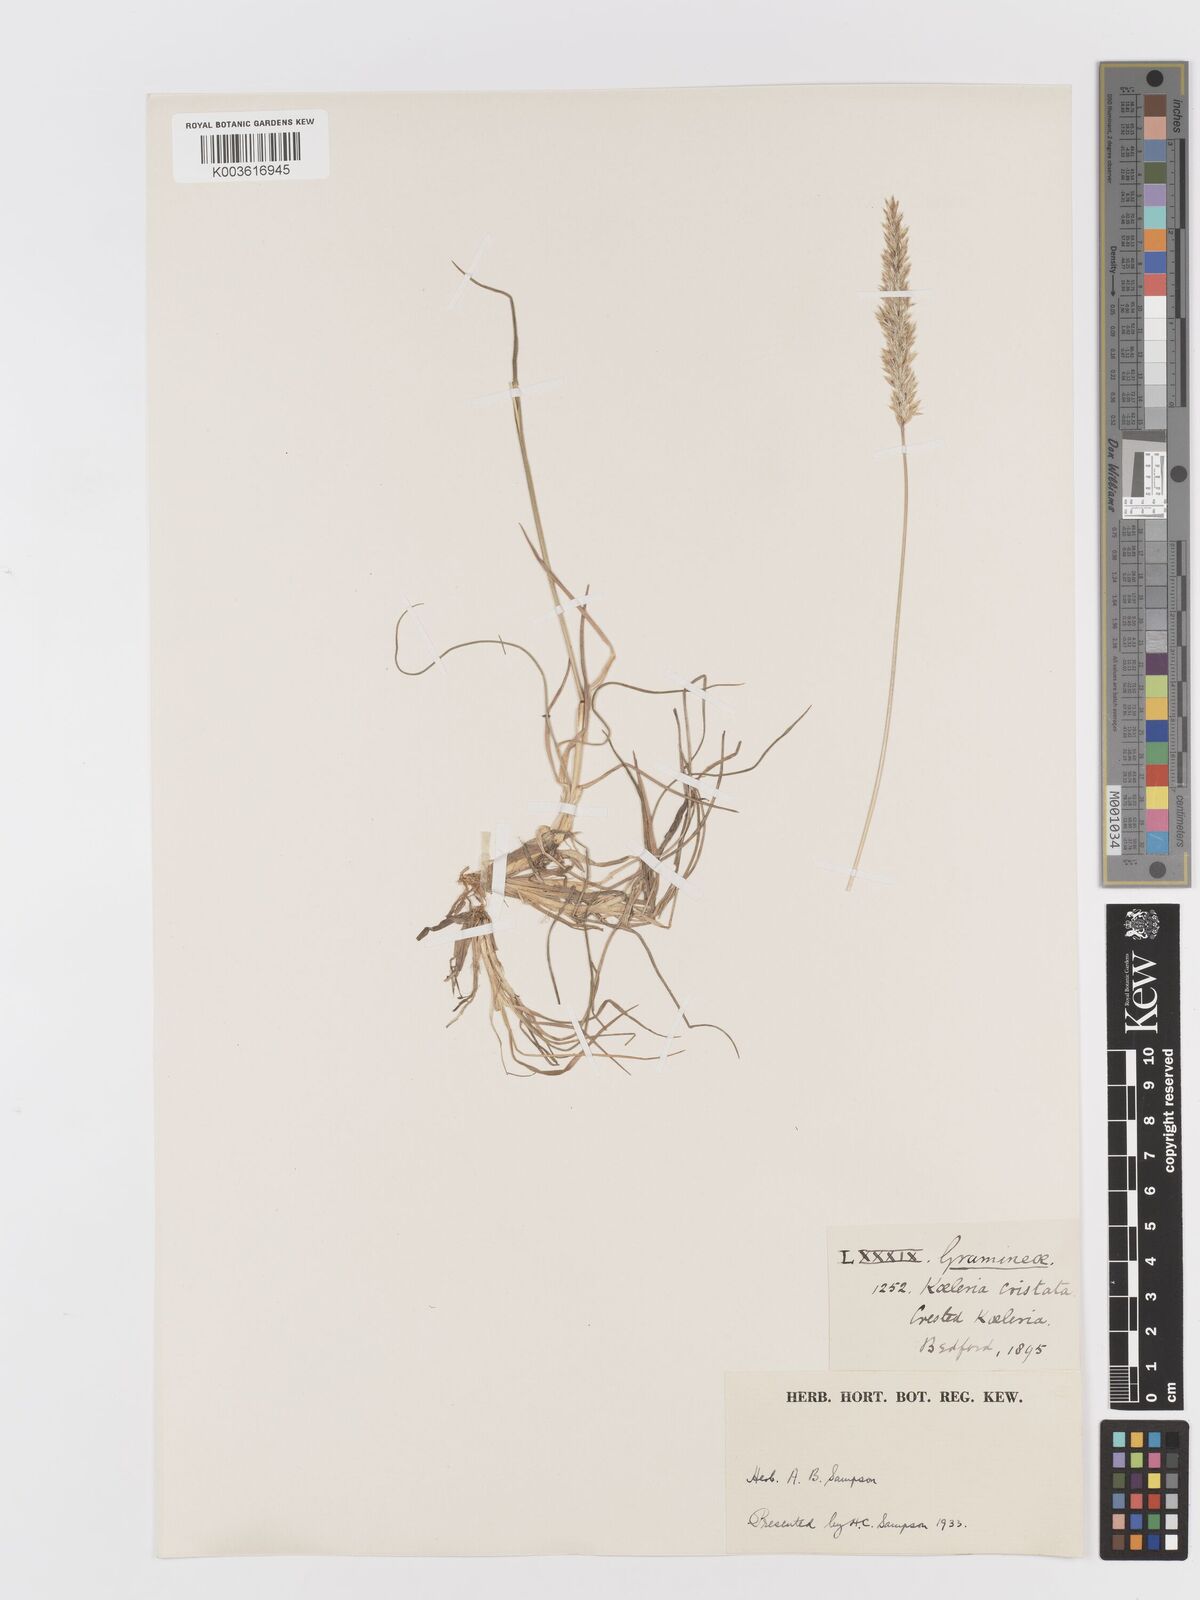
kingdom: Plantae
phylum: Tracheophyta
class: Liliopsida
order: Poales
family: Poaceae
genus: Koeleria
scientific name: Koeleria macrantha
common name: Crested hair-grass
